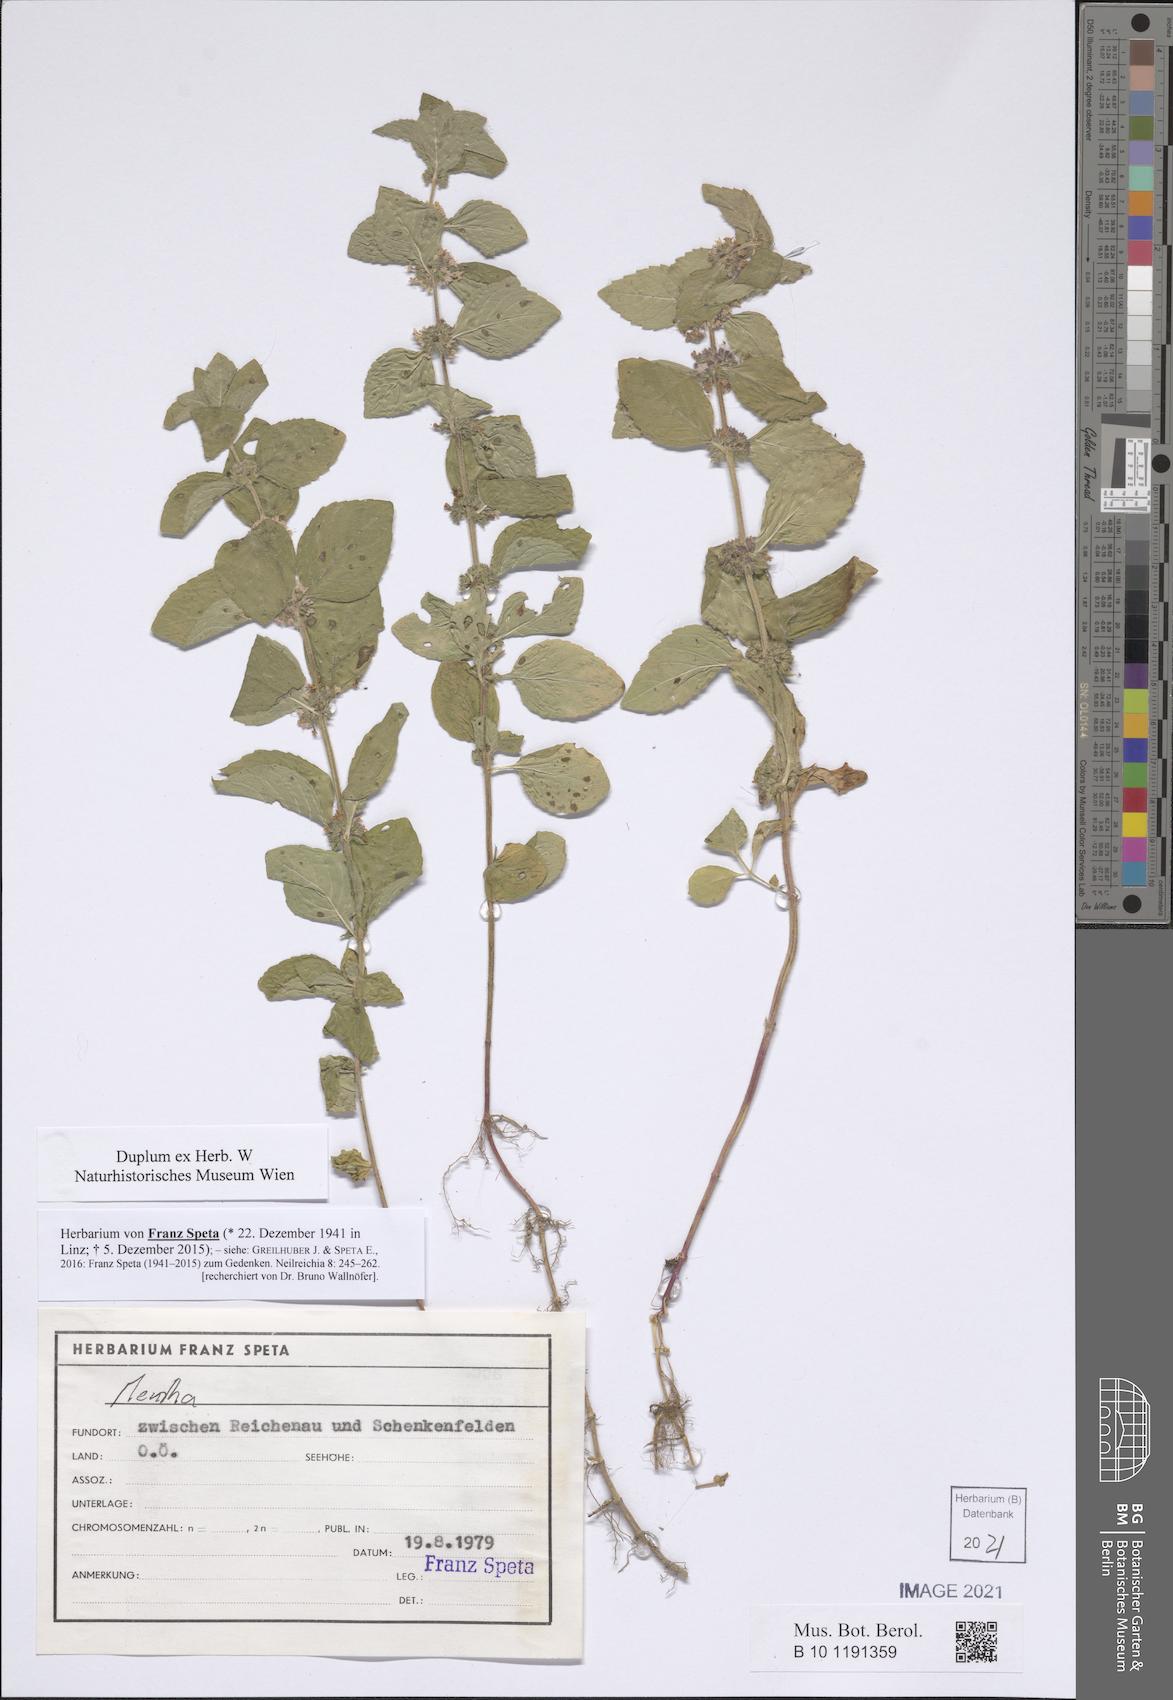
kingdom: Plantae
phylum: Tracheophyta
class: Magnoliopsida
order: Lamiales
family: Lamiaceae
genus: Mentha
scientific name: Mentha
